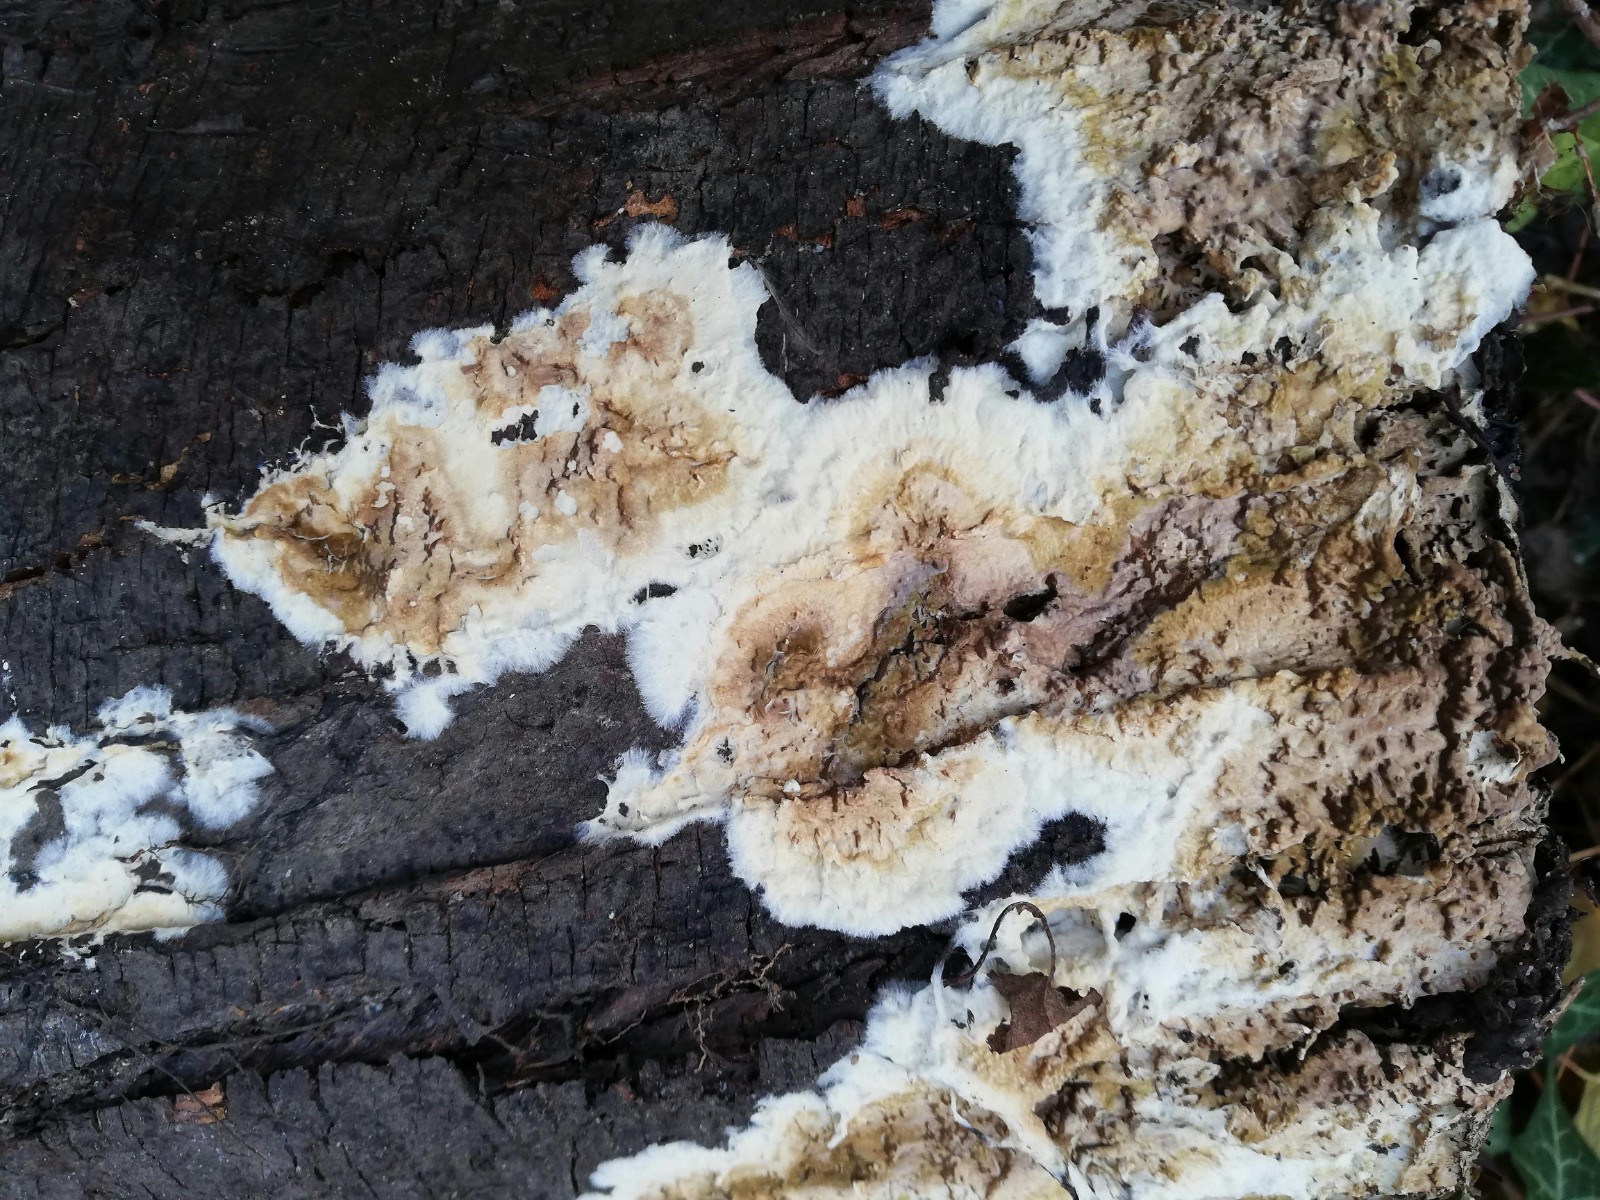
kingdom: Fungi
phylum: Basidiomycota
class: Agaricomycetes
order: Boletales
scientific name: Boletales
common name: rørhatordenen
